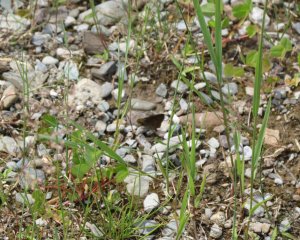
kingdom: Animalia
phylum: Arthropoda
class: Insecta
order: Lepidoptera
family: Hesperiidae
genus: Euphyes
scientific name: Euphyes vestris
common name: Dun Skipper
